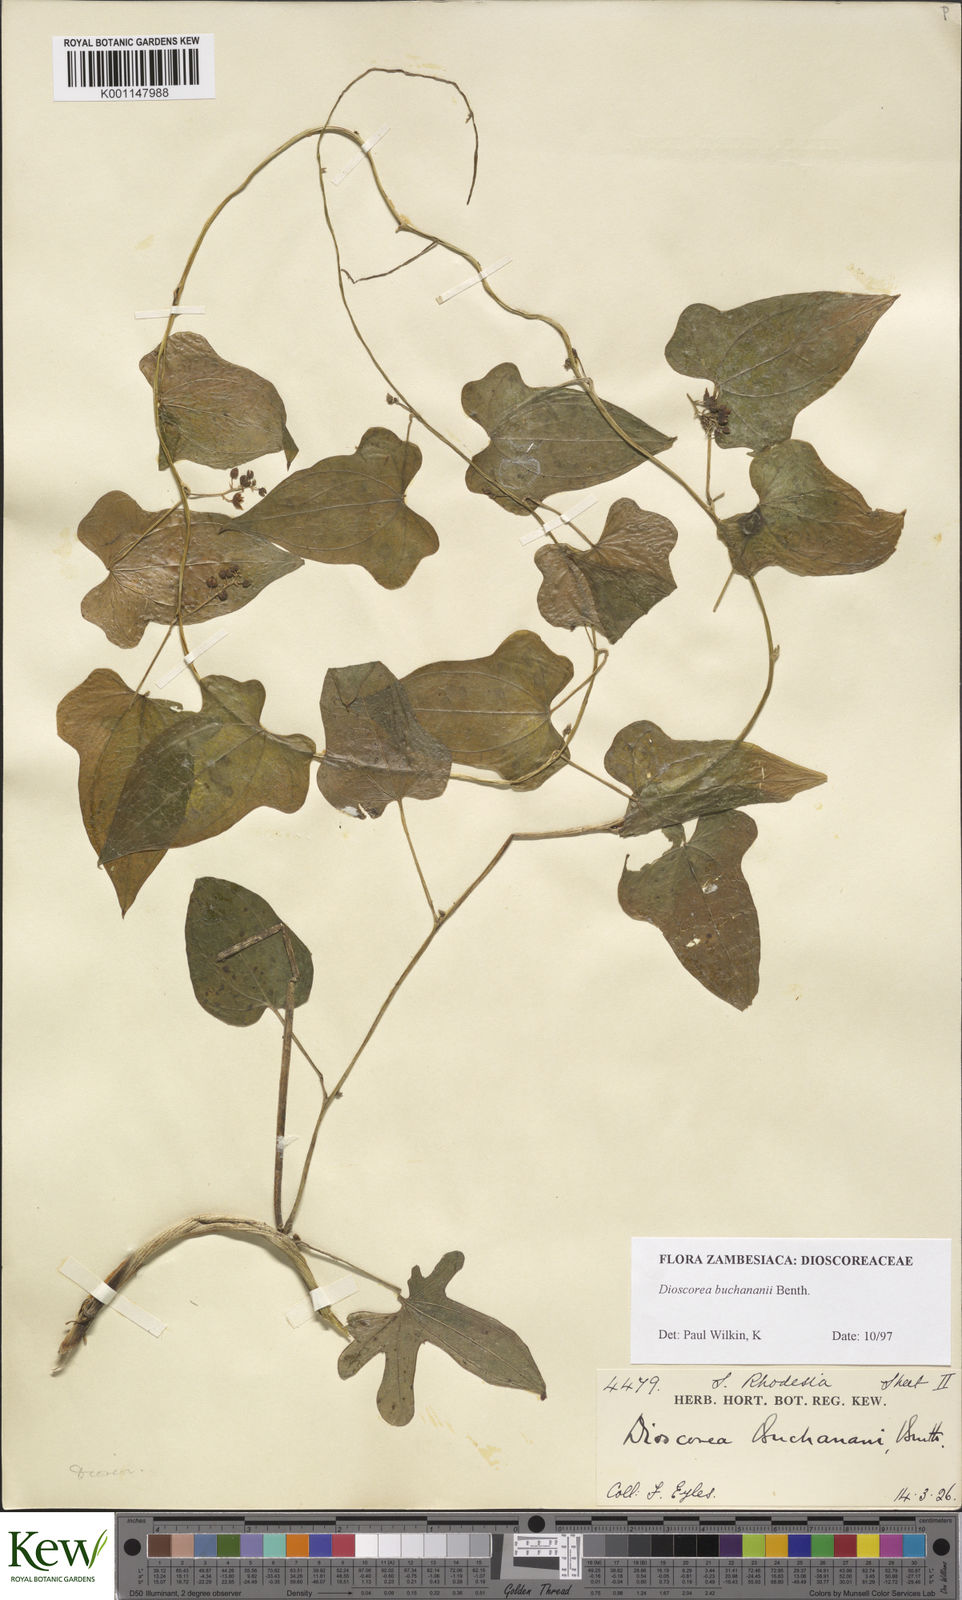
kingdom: Plantae
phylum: Tracheophyta
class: Liliopsida
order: Dioscoreales
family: Dioscoreaceae
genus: Dioscorea
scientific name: Dioscorea buchananii
